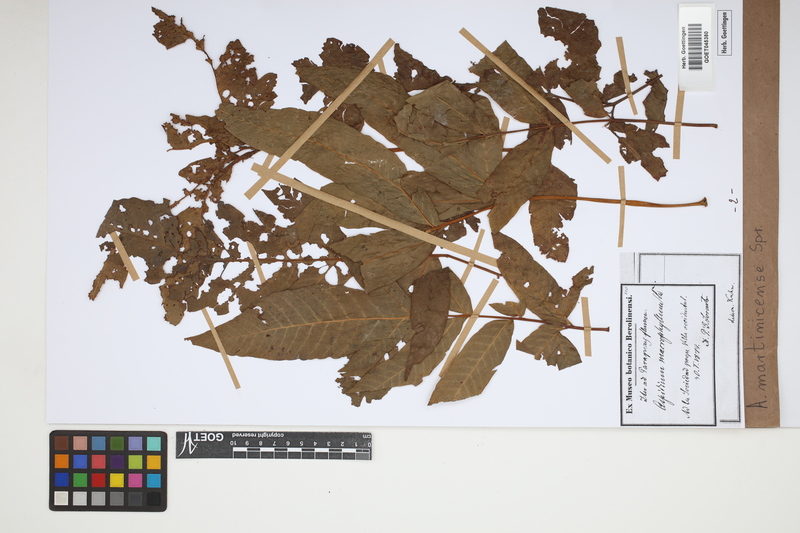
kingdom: Plantae
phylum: Tracheophyta
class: Polypodiopsida
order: Polypodiales
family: Tectariaceae
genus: Tectaria
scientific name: Tectaria incisa
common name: Incised halberd fern
